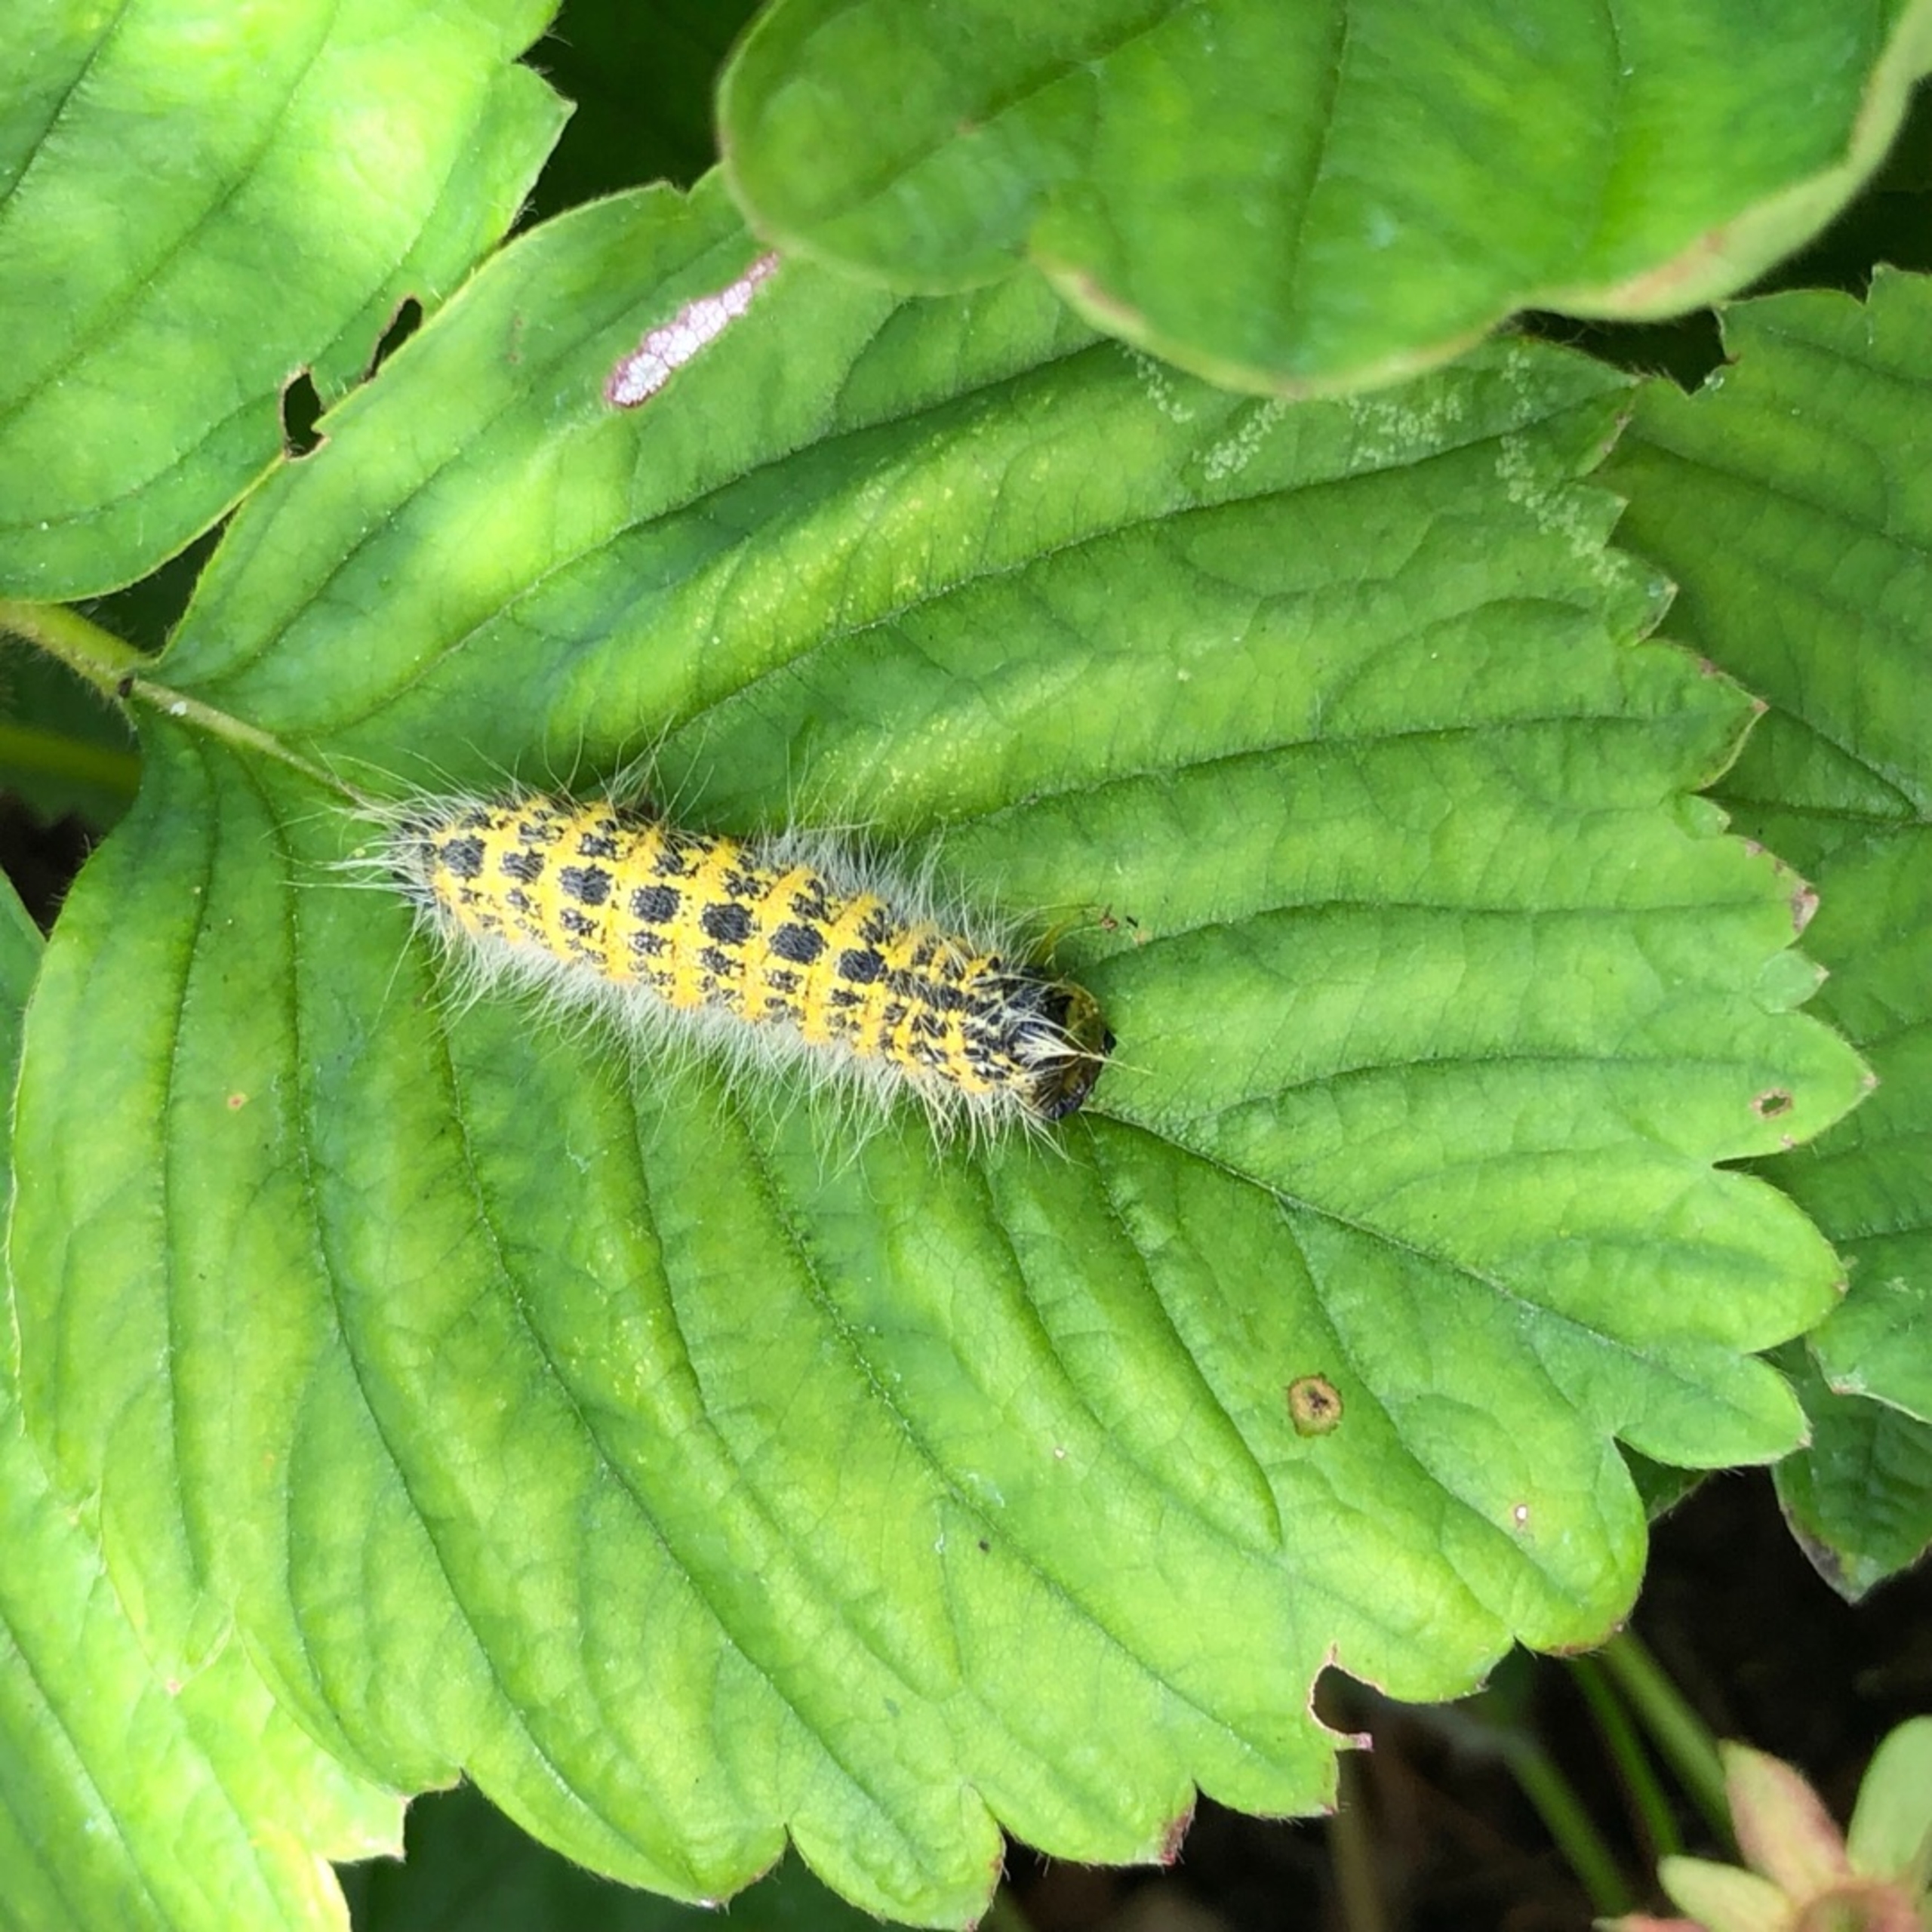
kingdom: Animalia
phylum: Arthropoda
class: Insecta
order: Lepidoptera
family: Notodontidae
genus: Phalera
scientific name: Phalera bucephala
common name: Måneplet
